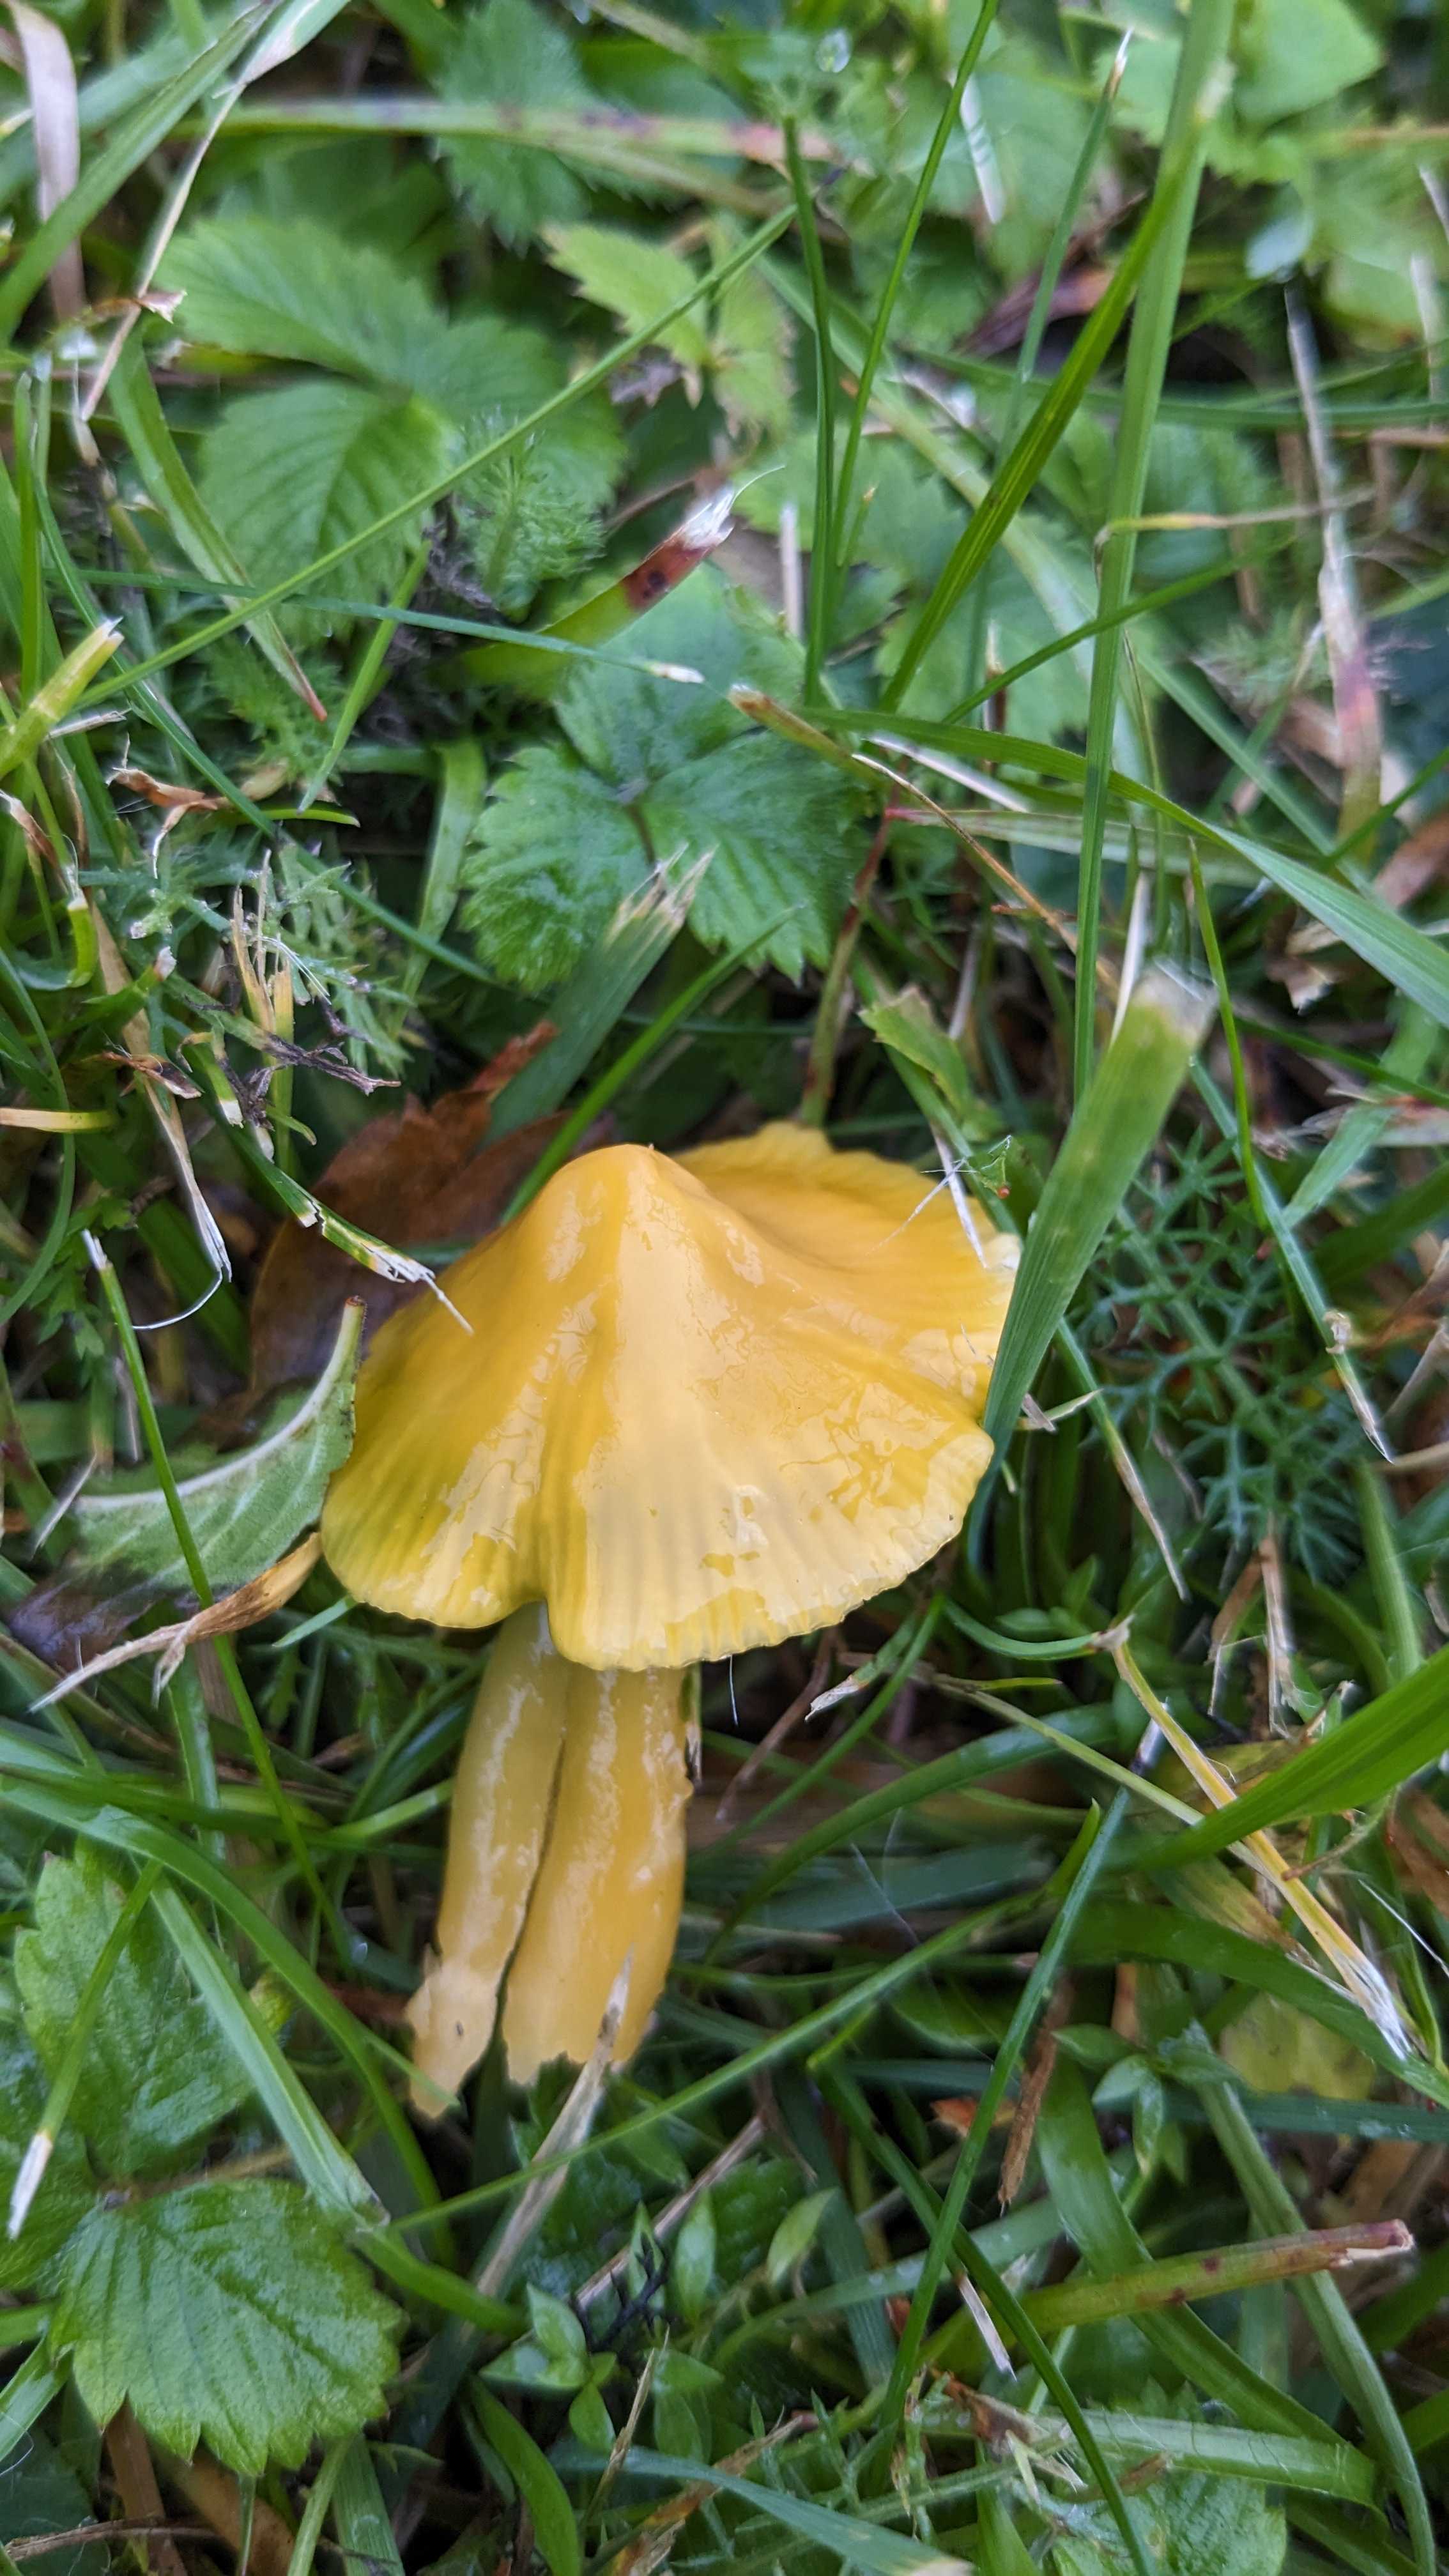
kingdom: Fungi
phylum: Basidiomycota
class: Agaricomycetes
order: Agaricales
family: Hygrophoraceae
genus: Gliophorus
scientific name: Gliophorus psittacinus
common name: papegøje-vokshat
